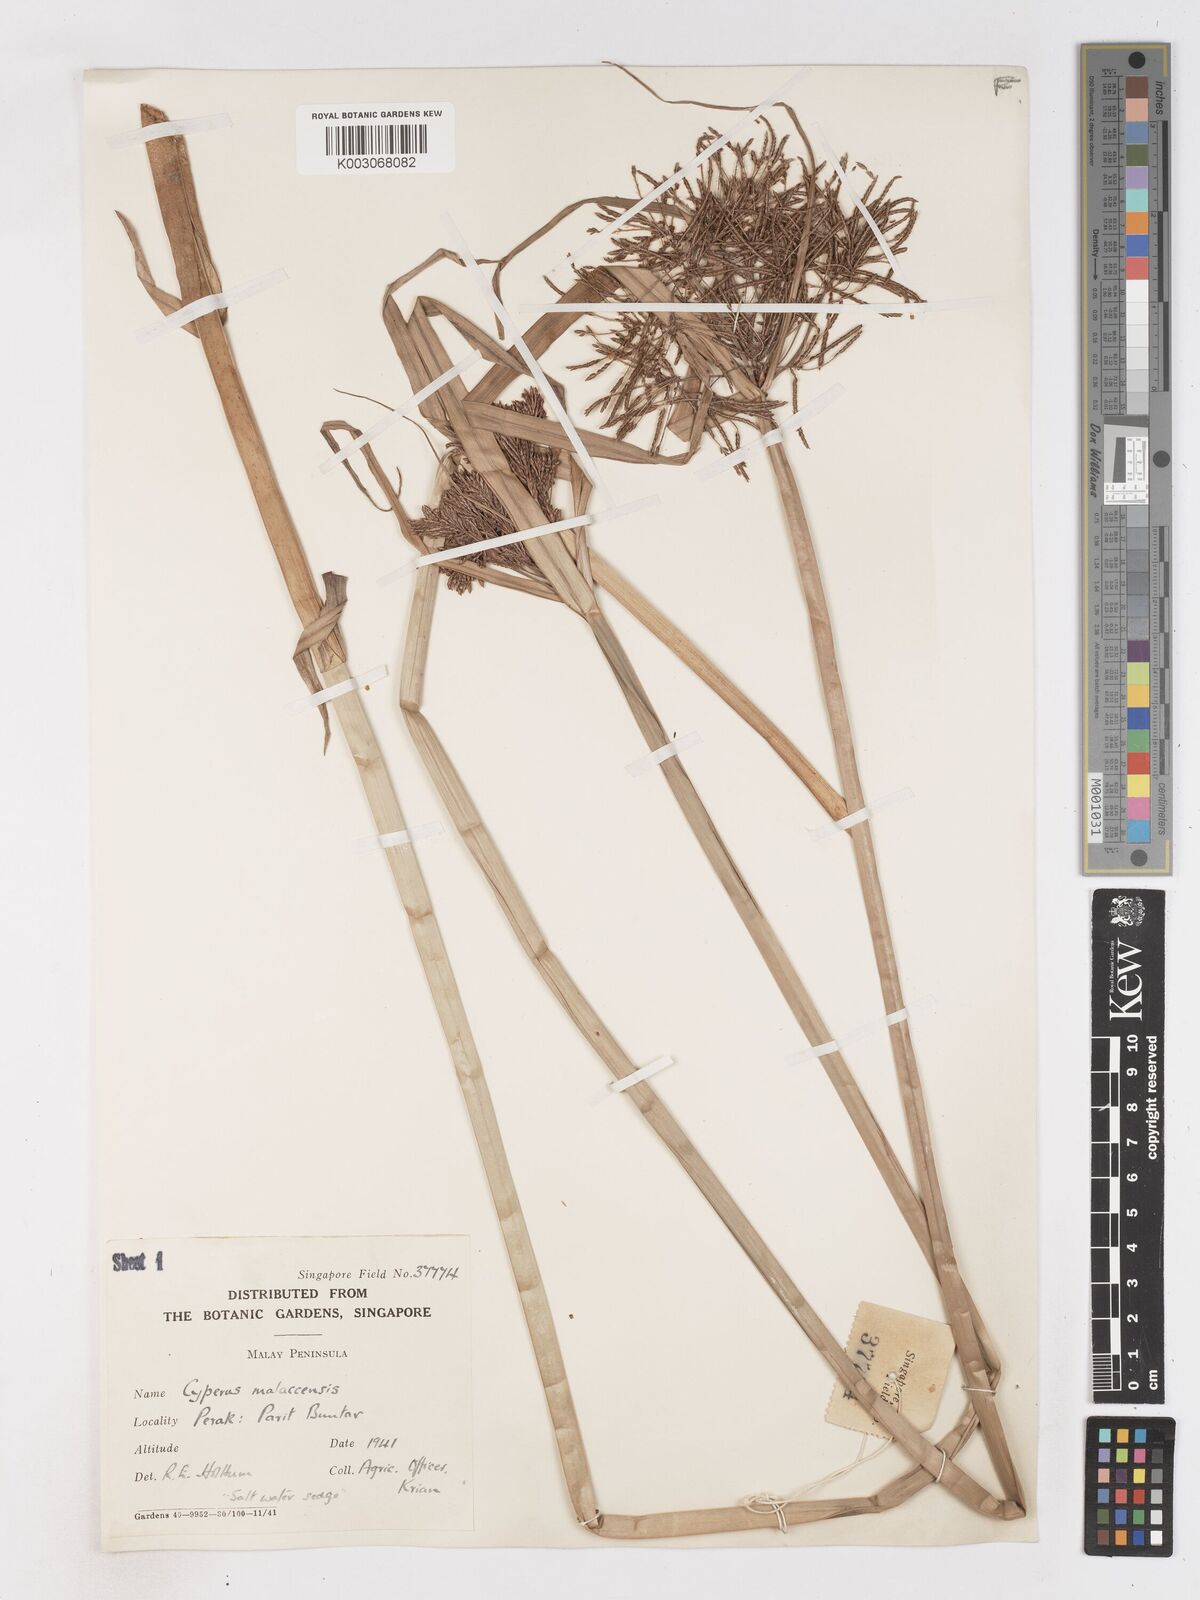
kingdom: Plantae
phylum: Tracheophyta
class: Liliopsida
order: Poales
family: Cyperaceae
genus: Cyperus
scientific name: Cyperus malaccensis
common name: Shichito matgrass
